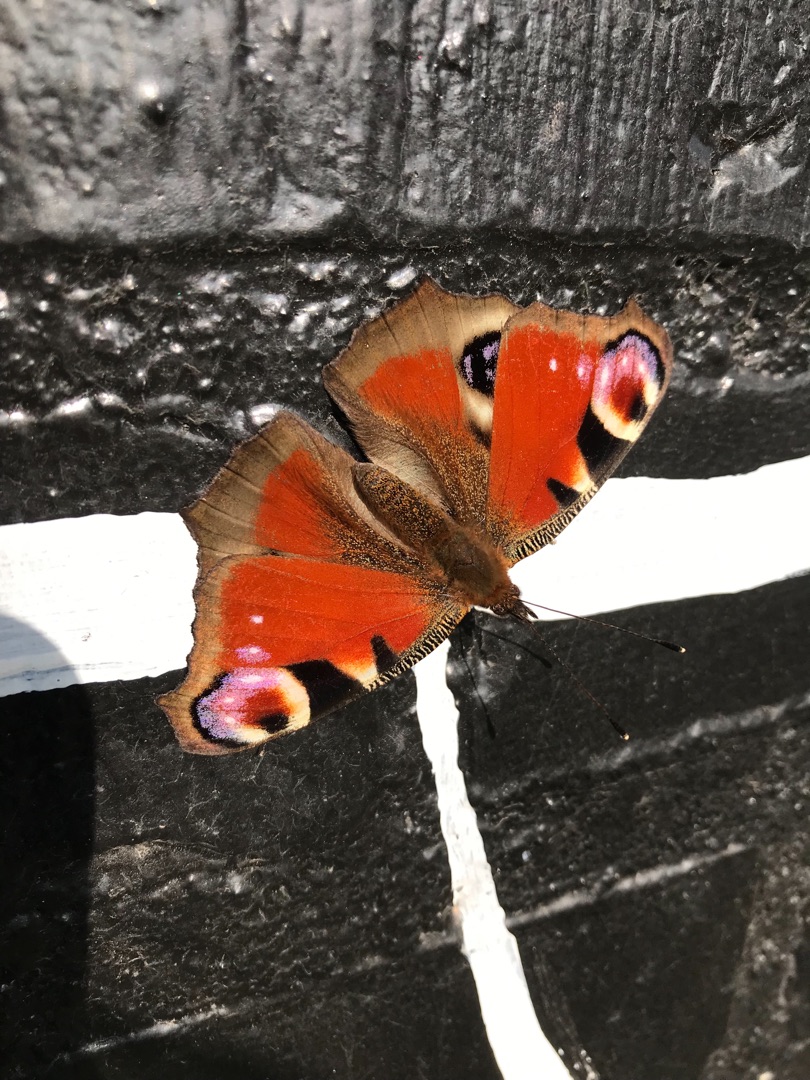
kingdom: Animalia
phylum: Arthropoda
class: Insecta
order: Lepidoptera
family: Nymphalidae
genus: Aglais
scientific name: Aglais io
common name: Dagpåfugleøje
